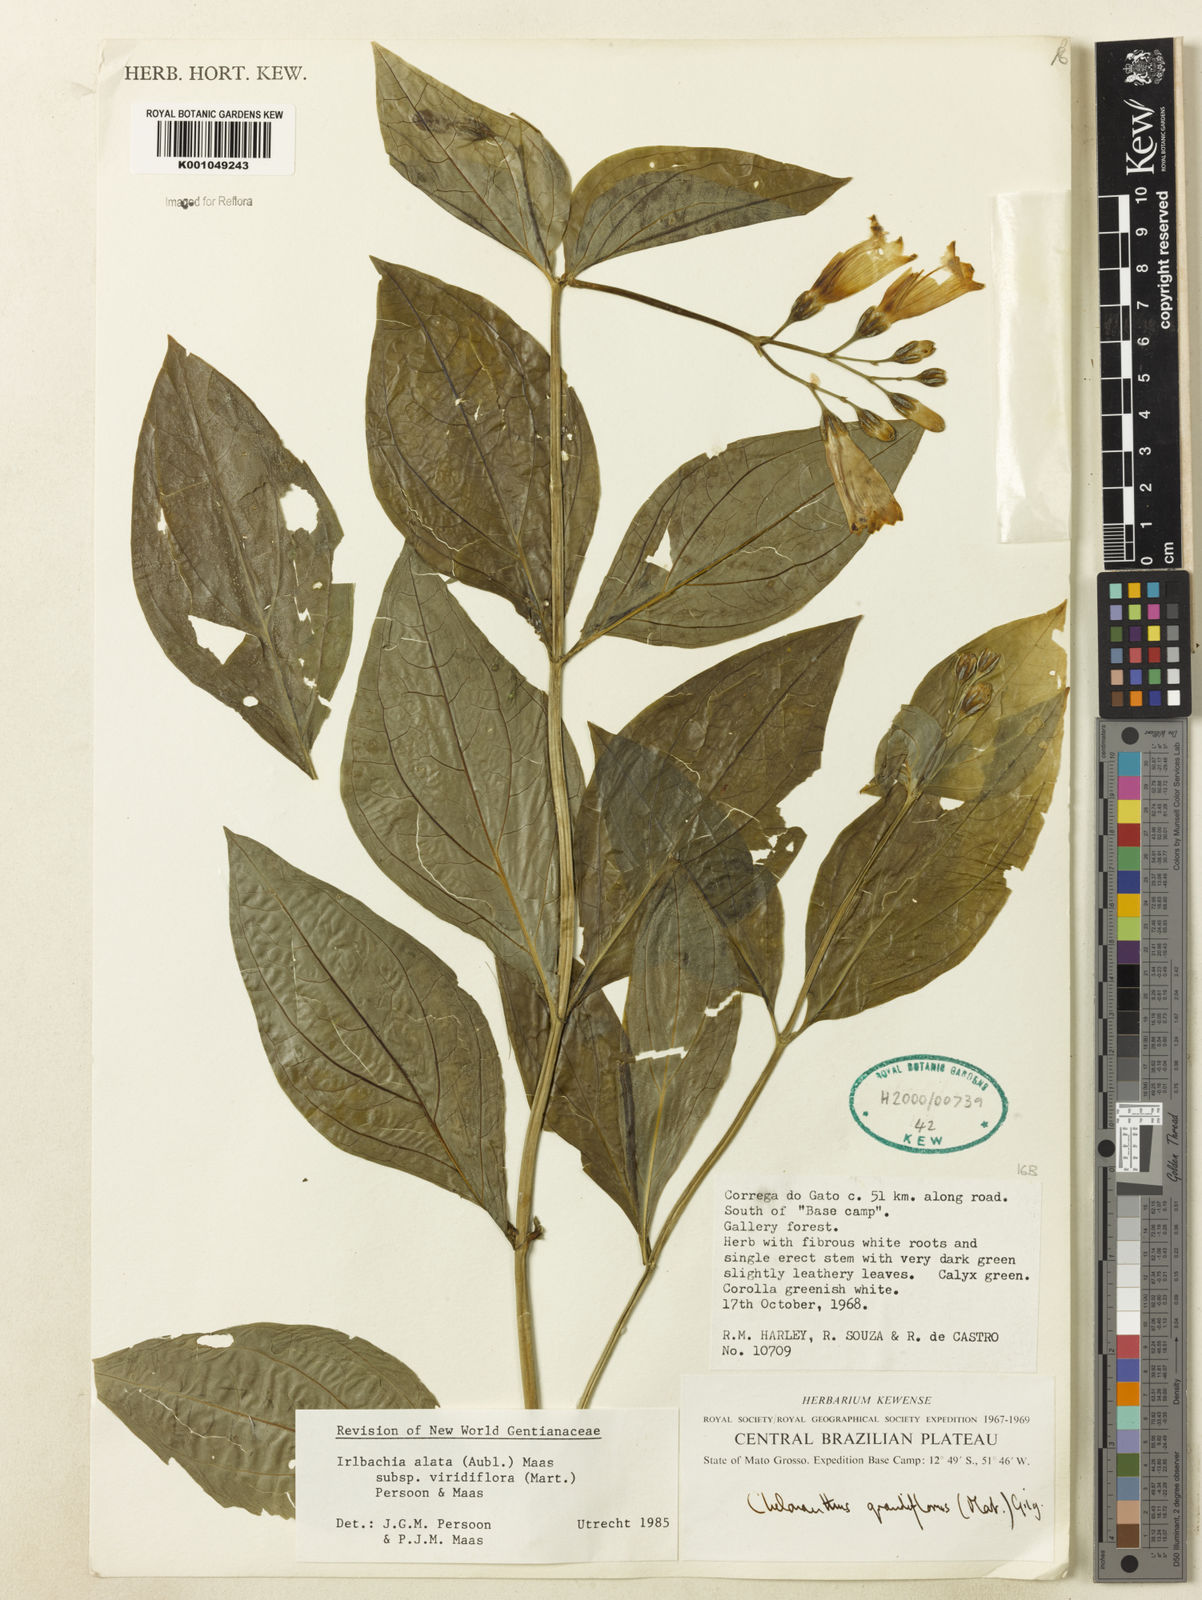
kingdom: Plantae
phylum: Tracheophyta
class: Magnoliopsida
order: Gentianales
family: Gentianaceae
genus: Chelonanthus
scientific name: Chelonanthus viridiflorus
